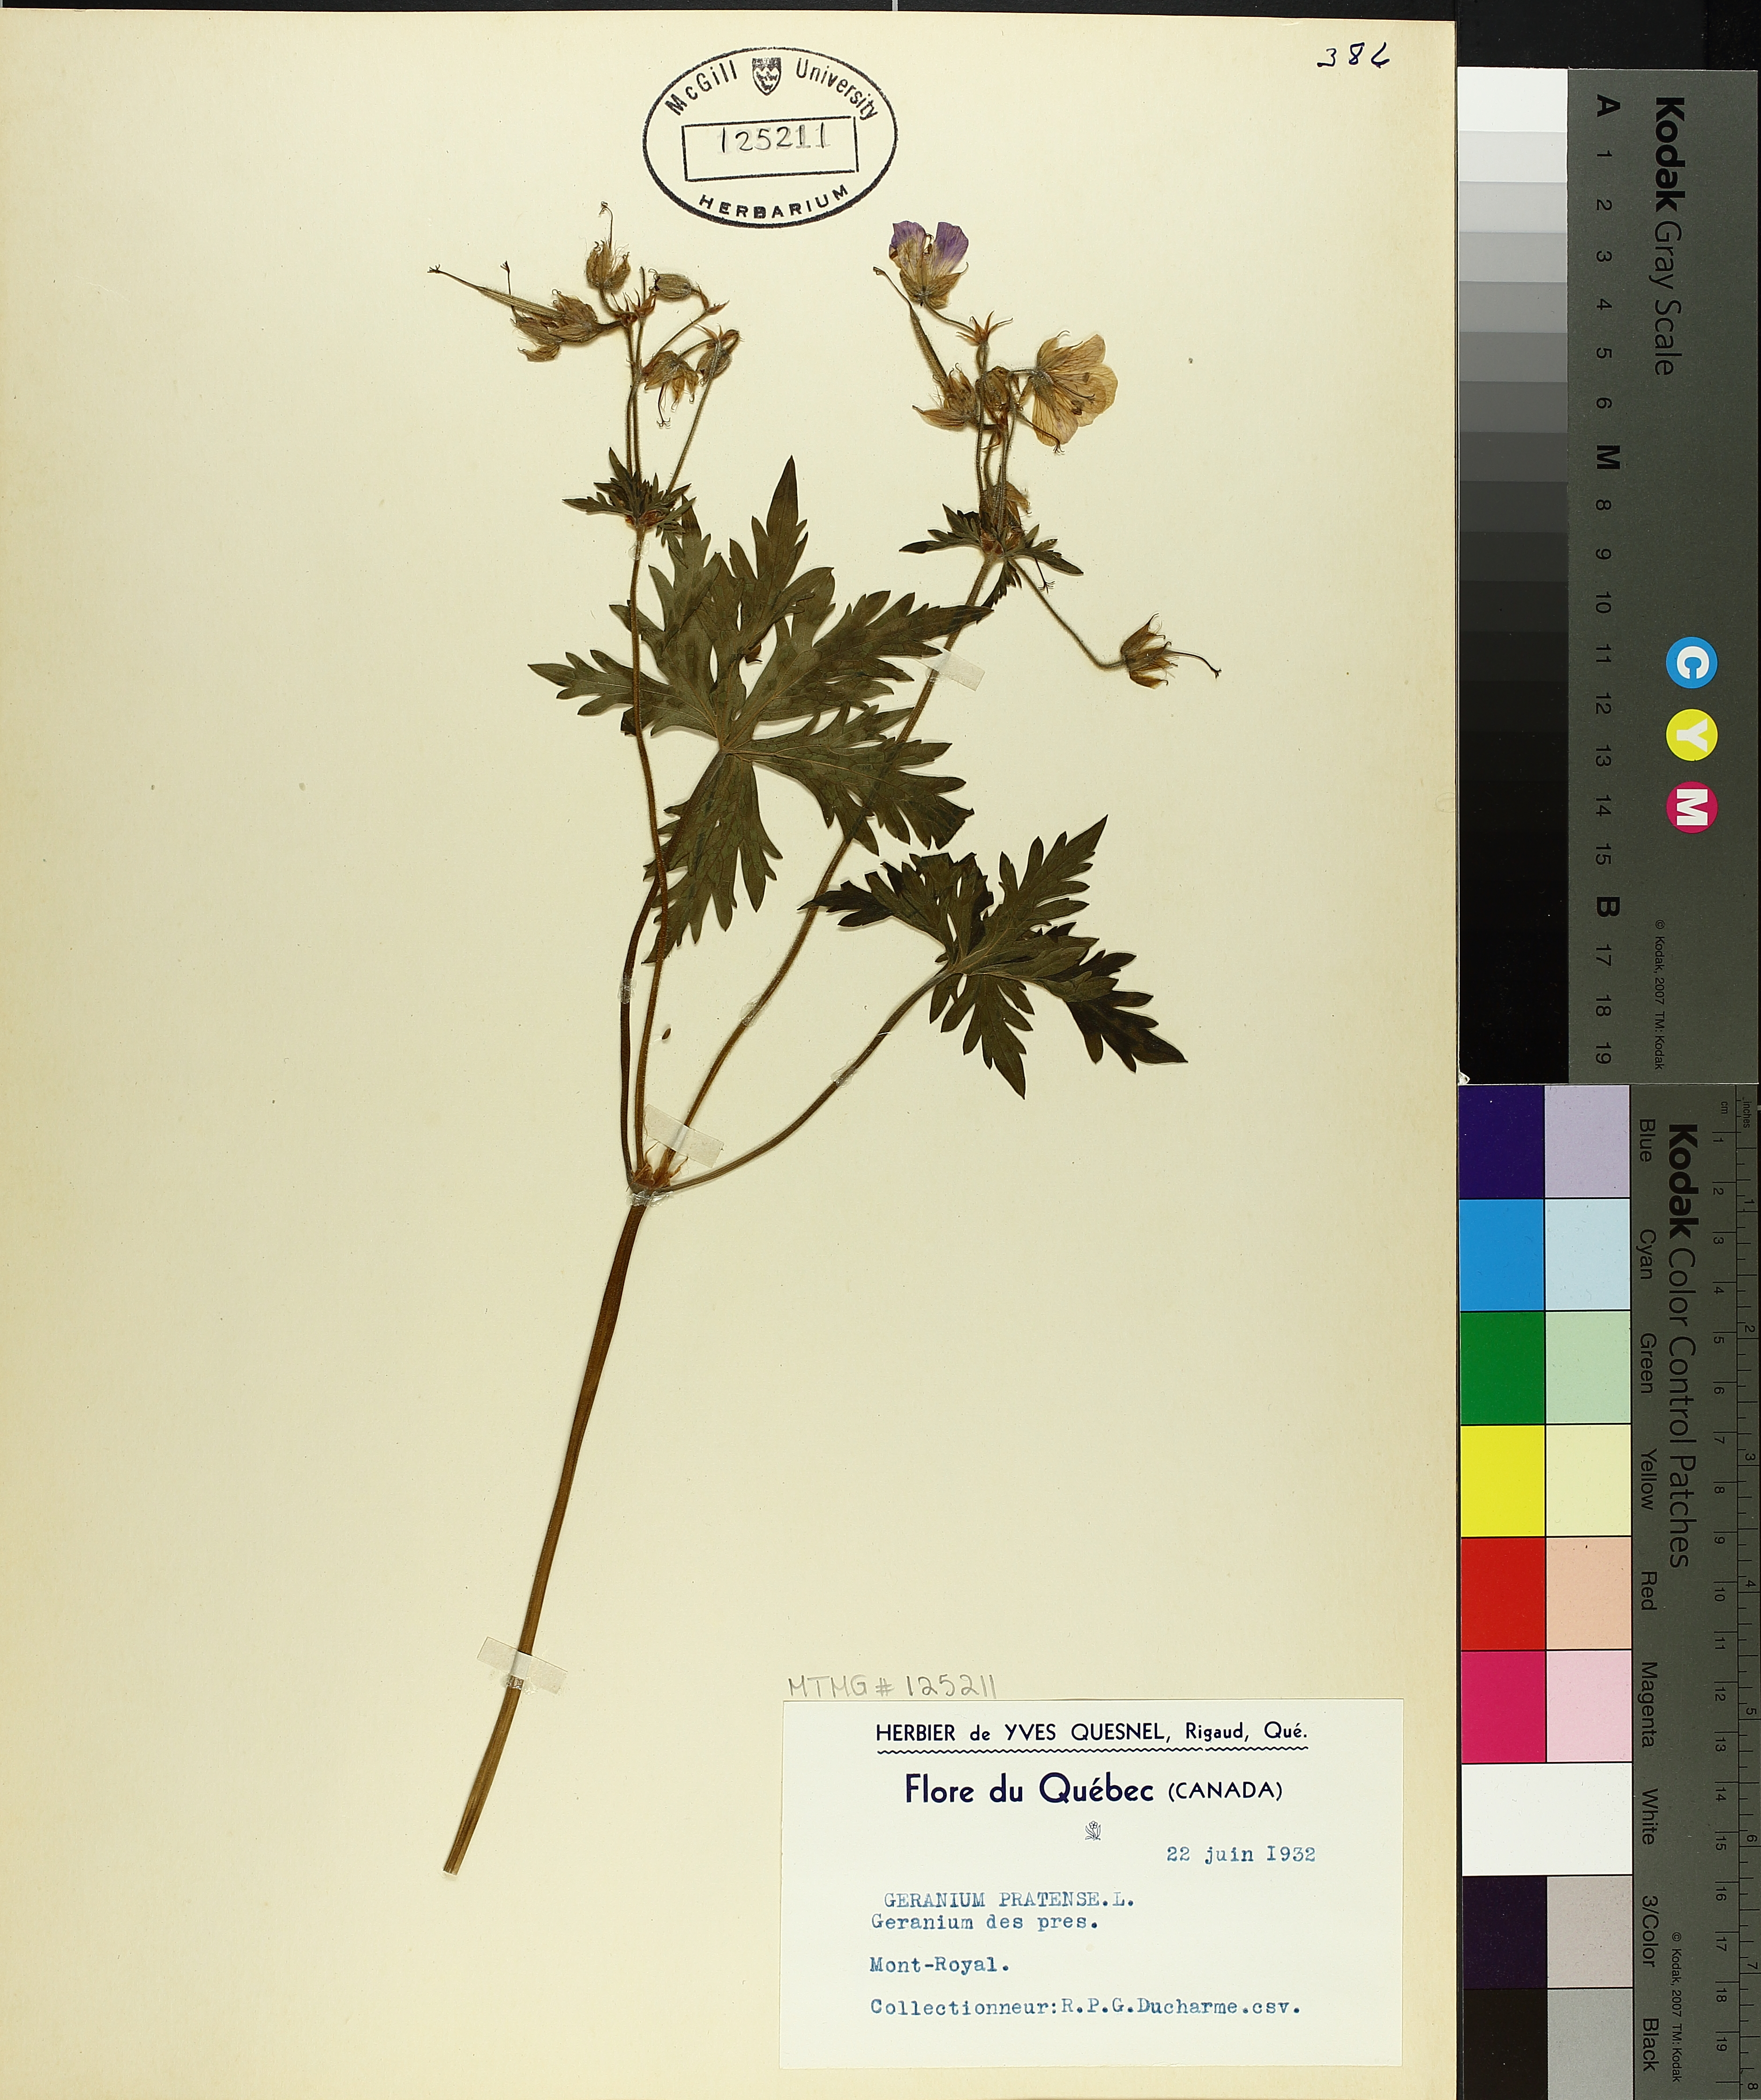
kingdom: Plantae
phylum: Tracheophyta
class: Magnoliopsida
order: Geraniales
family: Geraniaceae
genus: Geranium
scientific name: Geranium pratense
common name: Meadow crane's-bill
